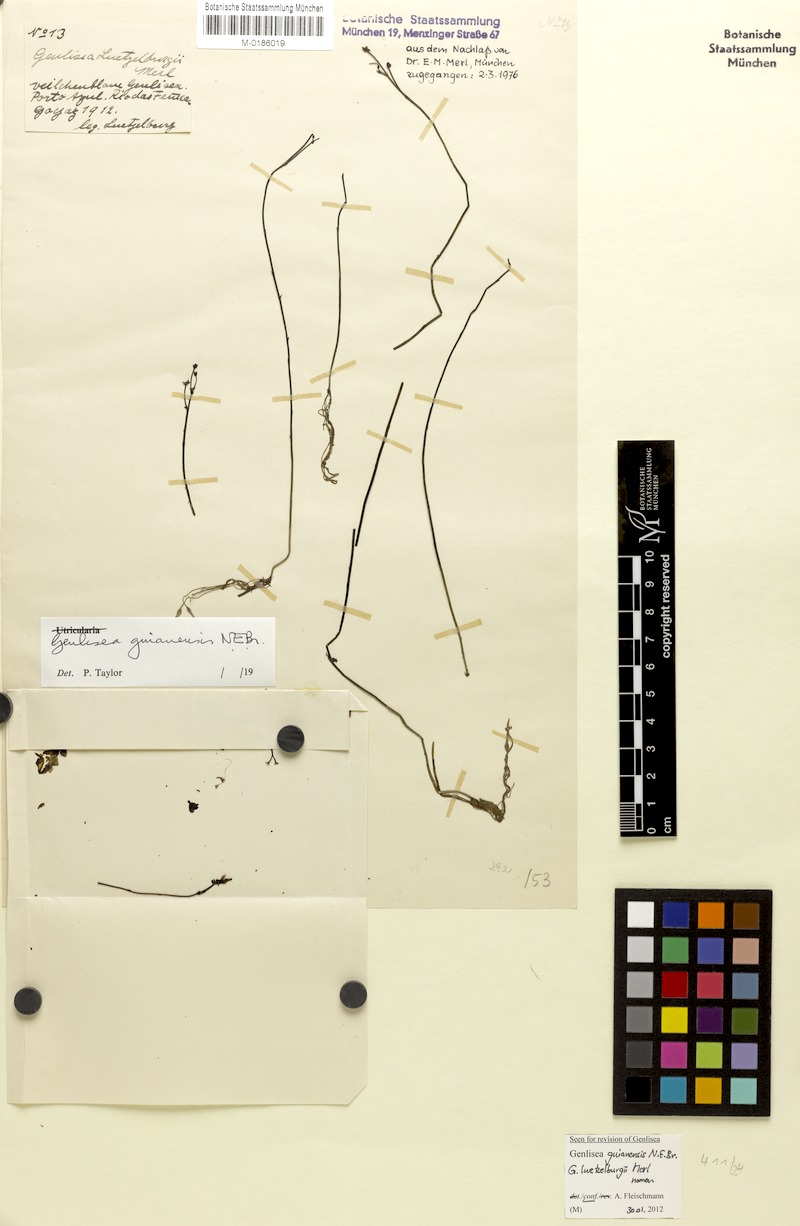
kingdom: Plantae
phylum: Tracheophyta
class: Magnoliopsida
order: Lamiales
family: Lentibulariaceae
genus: Genlisea
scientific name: Genlisea guianensis
